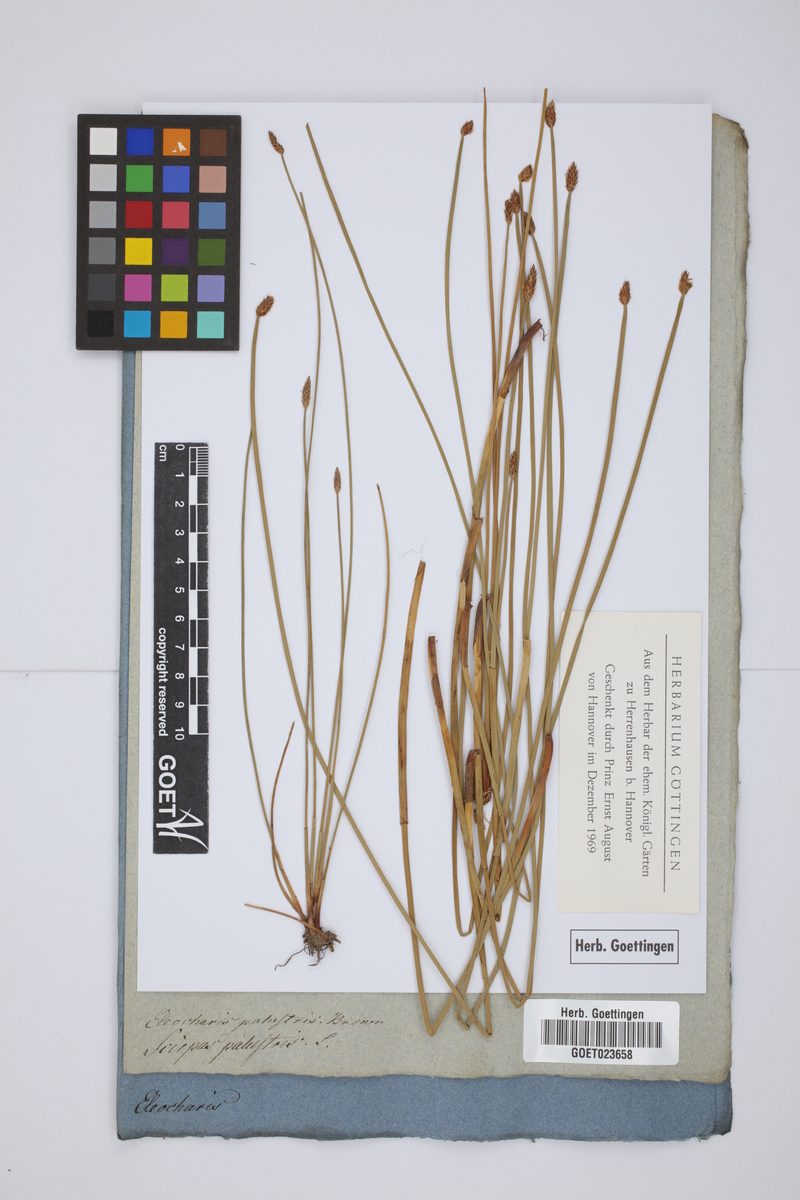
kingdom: Plantae
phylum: Tracheophyta
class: Liliopsida
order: Poales
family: Cyperaceae
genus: Eleocharis
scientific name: Eleocharis palustris
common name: Common spike-rush
